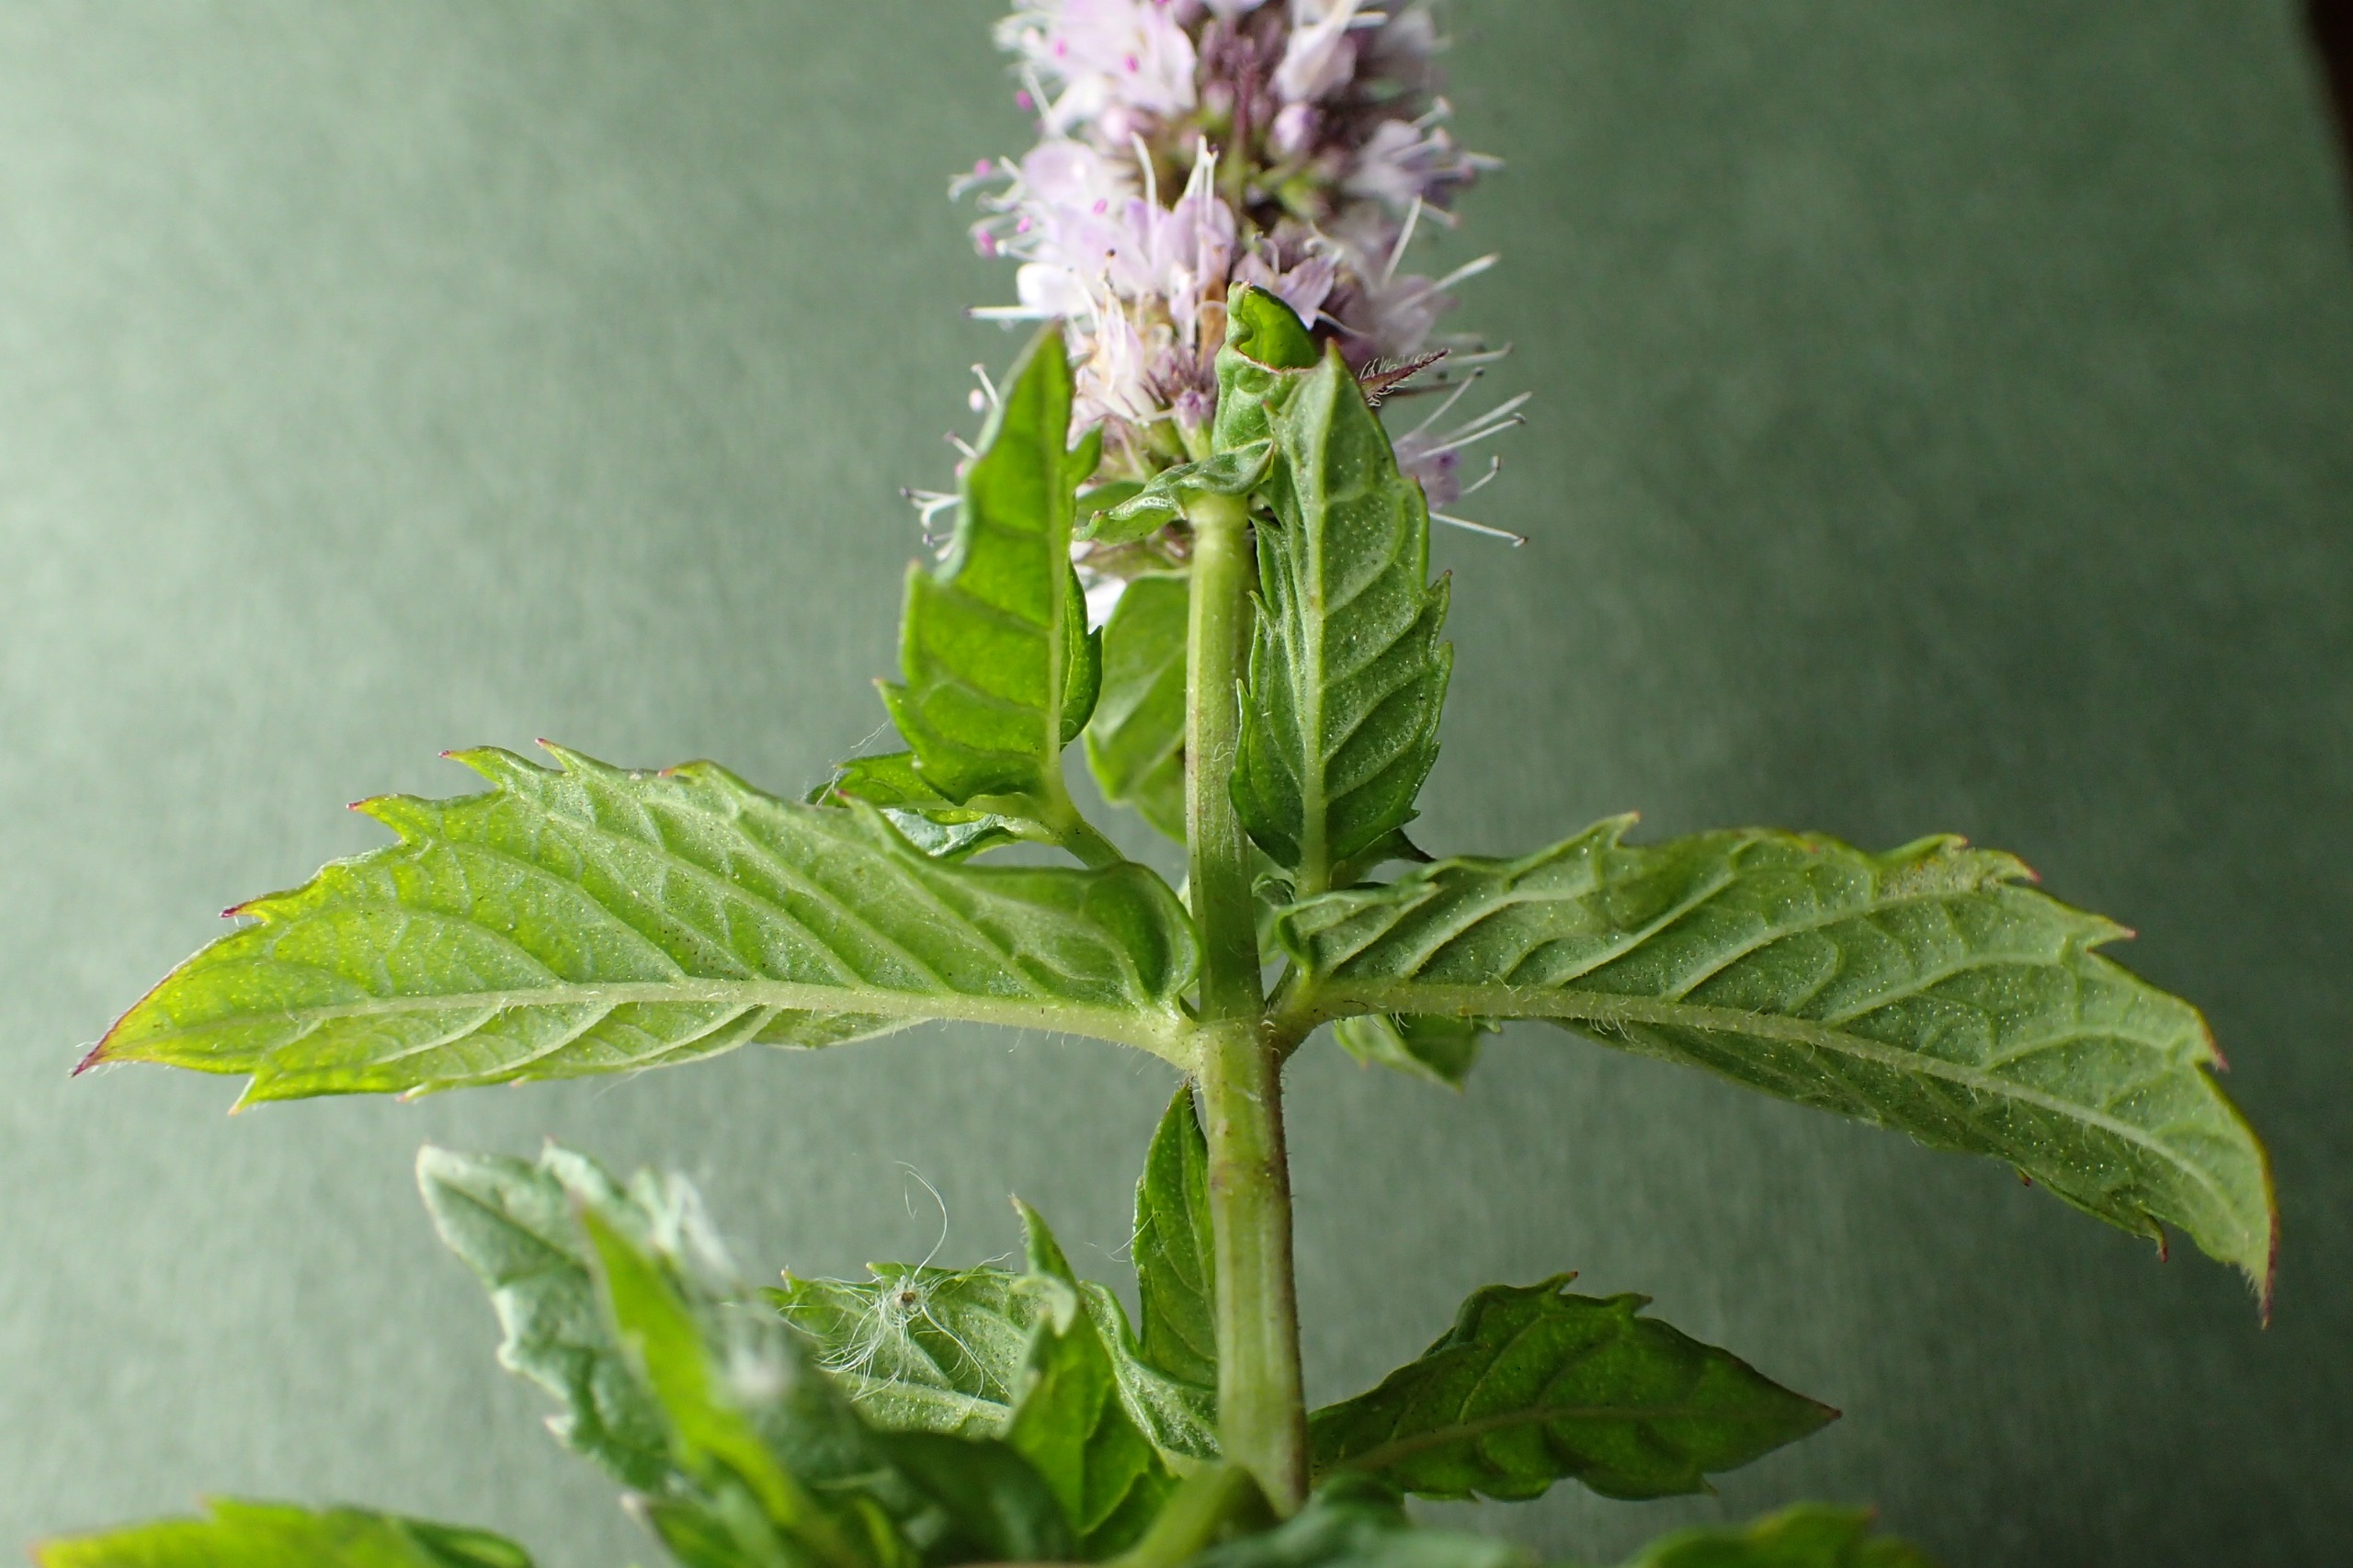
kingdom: Plantae
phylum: Tracheophyta
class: Magnoliopsida
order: Lamiales
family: Lamiaceae
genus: Mentha
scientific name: Mentha spicata
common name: Grøn mynte
